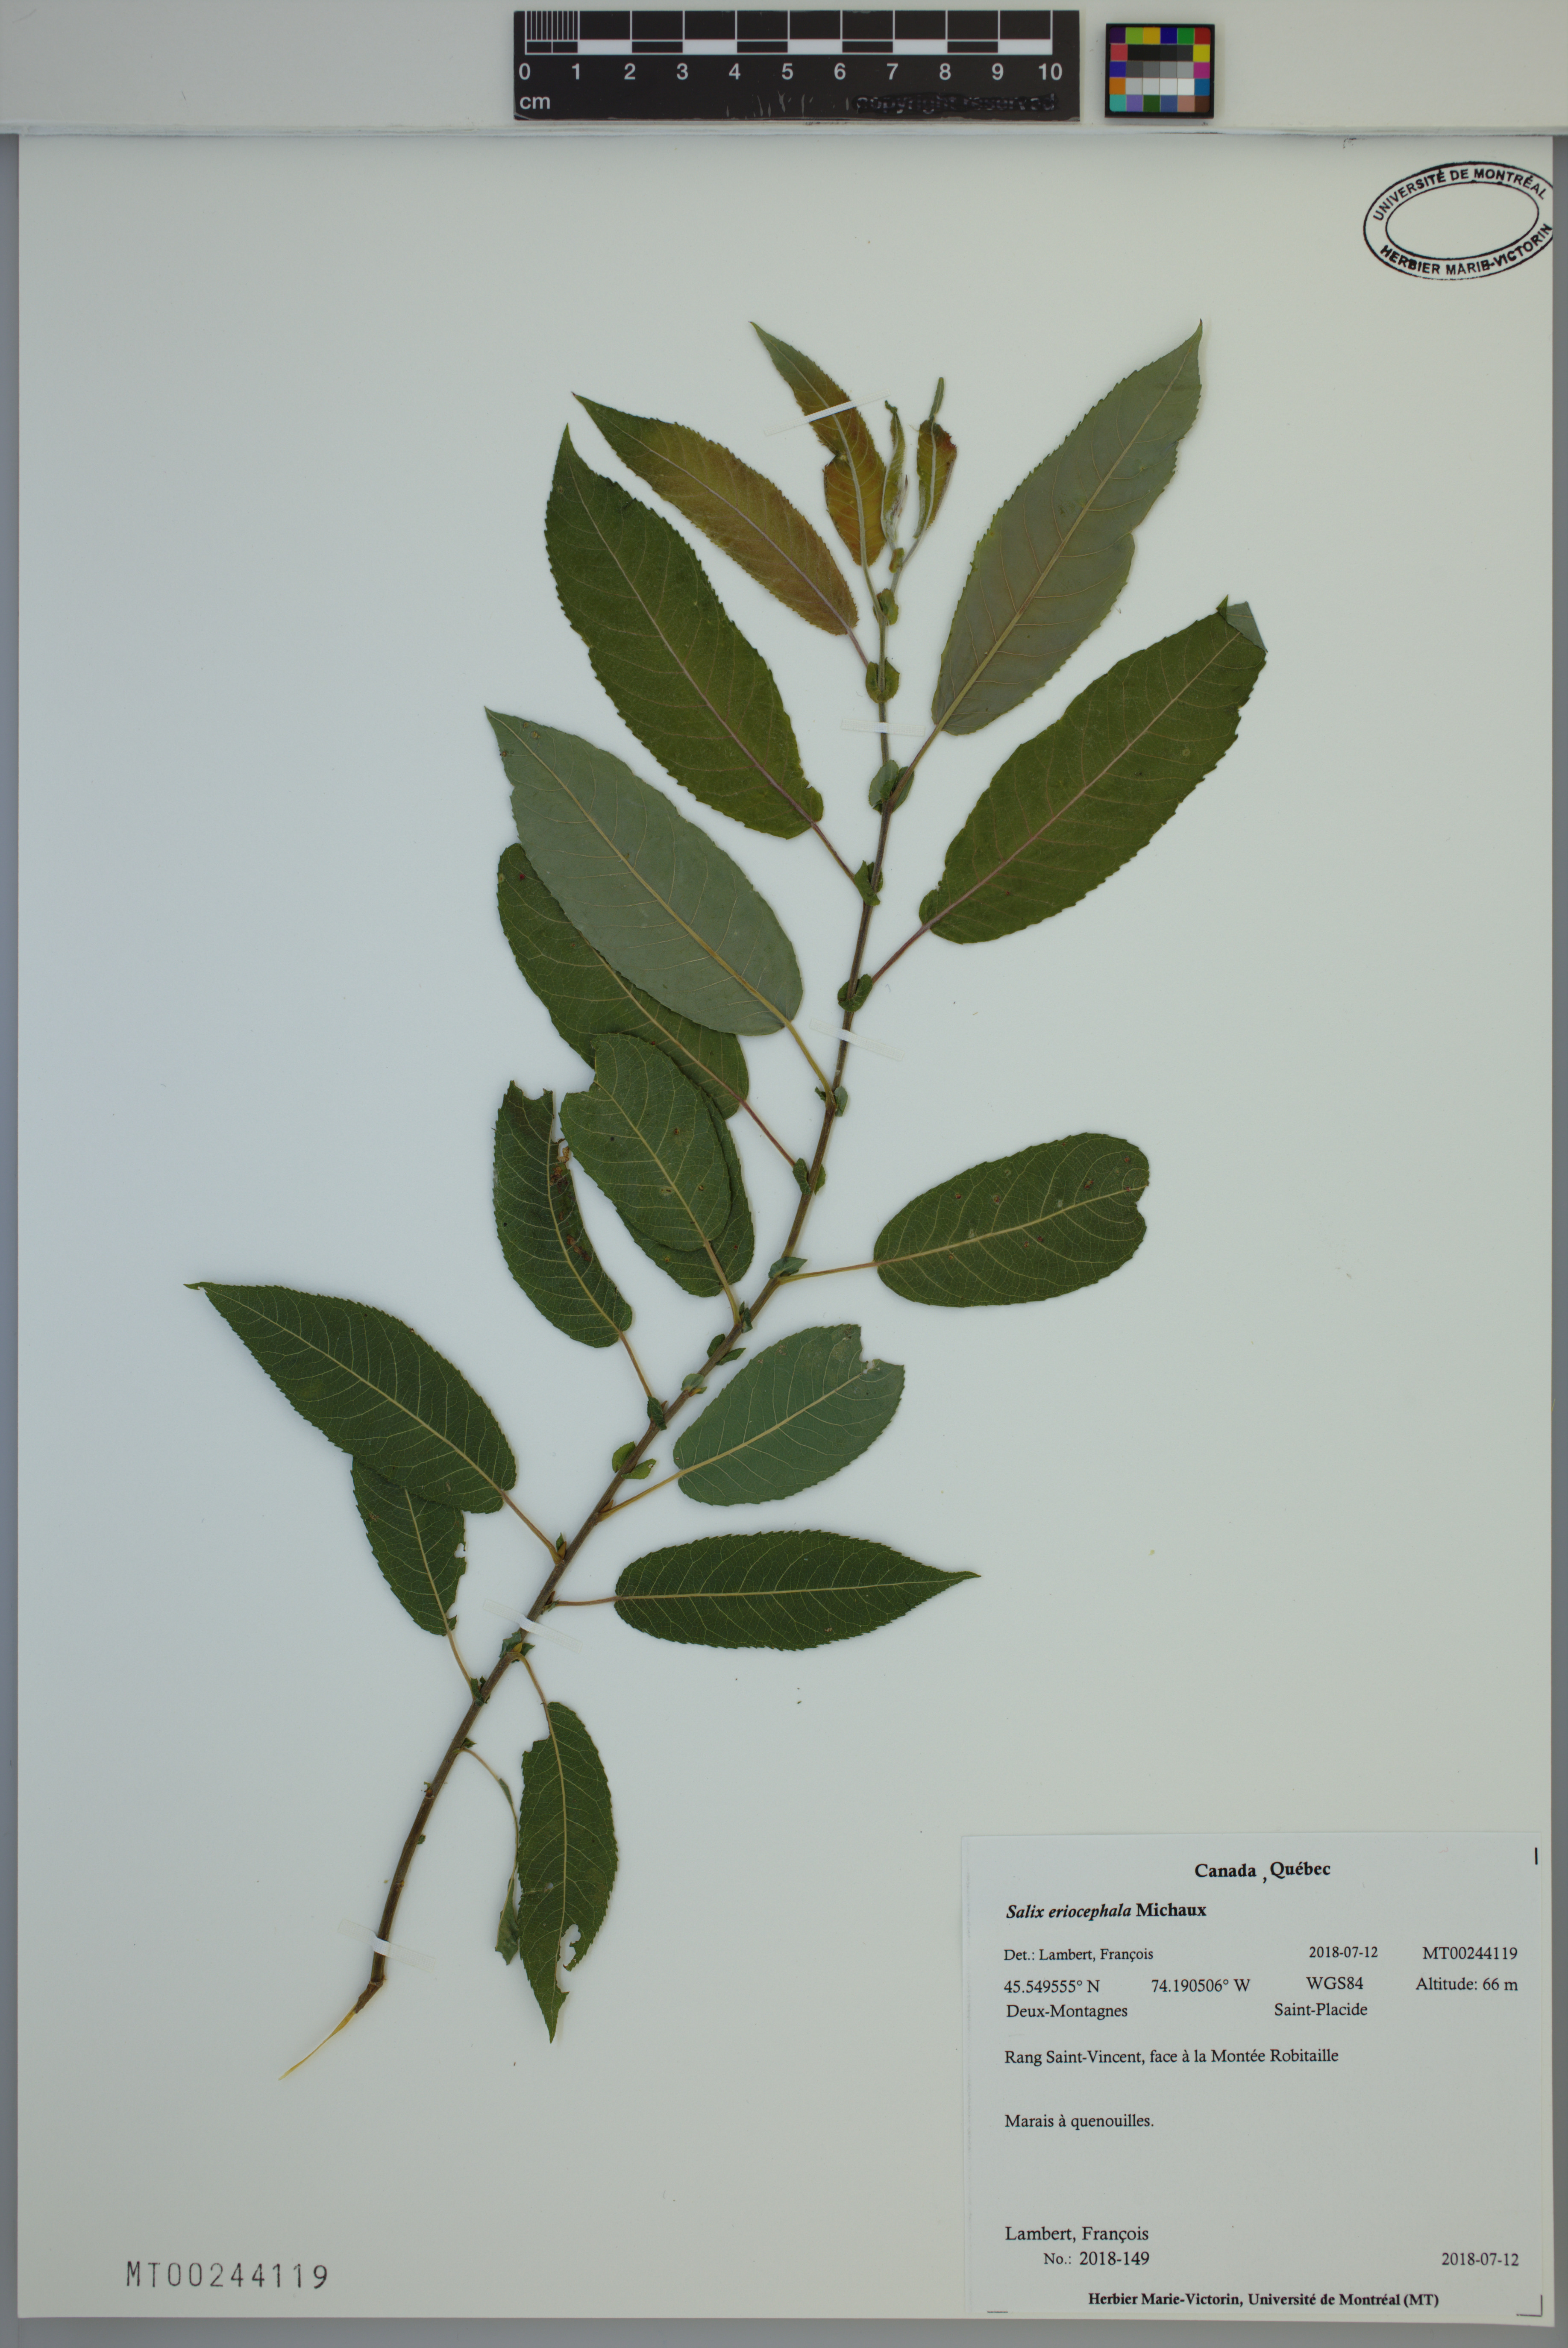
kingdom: Plantae
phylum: Tracheophyta
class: Magnoliopsida
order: Malpighiales
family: Salicaceae
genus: Salix
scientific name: Salix eriocephala
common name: Heart-leaved willow
